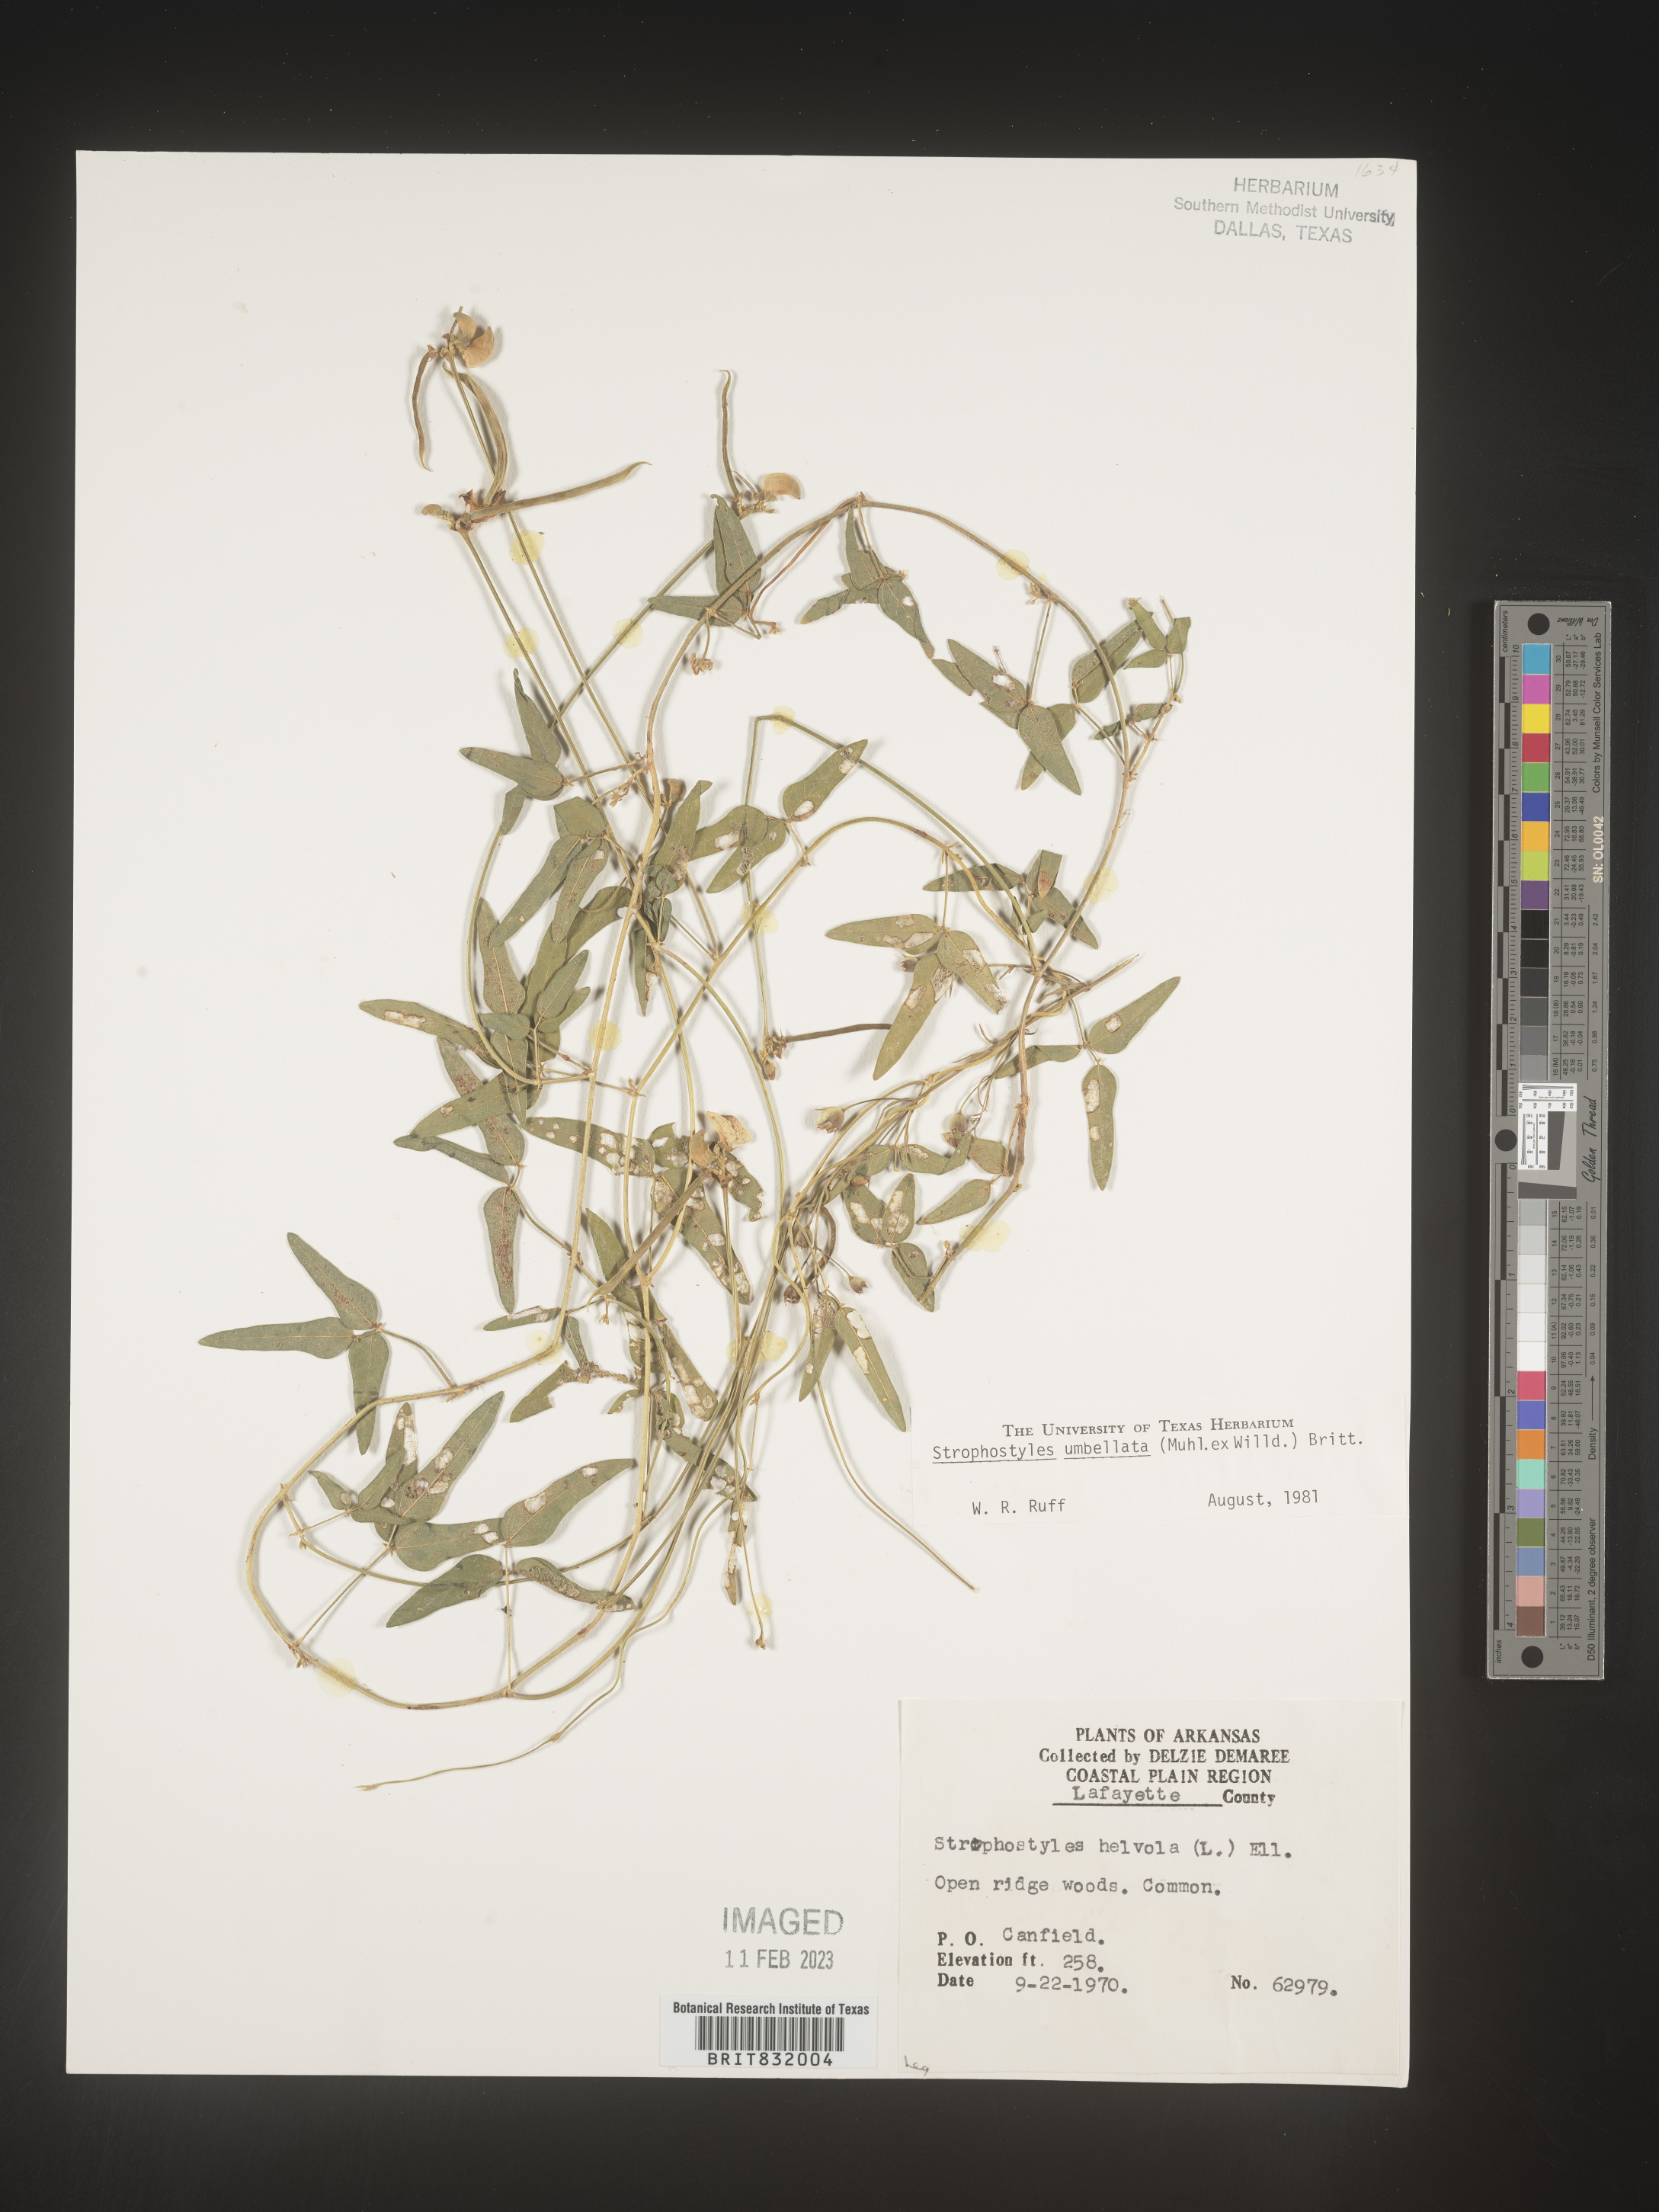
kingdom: Plantae
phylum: Tracheophyta
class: Magnoliopsida
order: Fabales
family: Fabaceae
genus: Strophostyles
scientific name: Strophostyles umbellata
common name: Perennial wild bean
